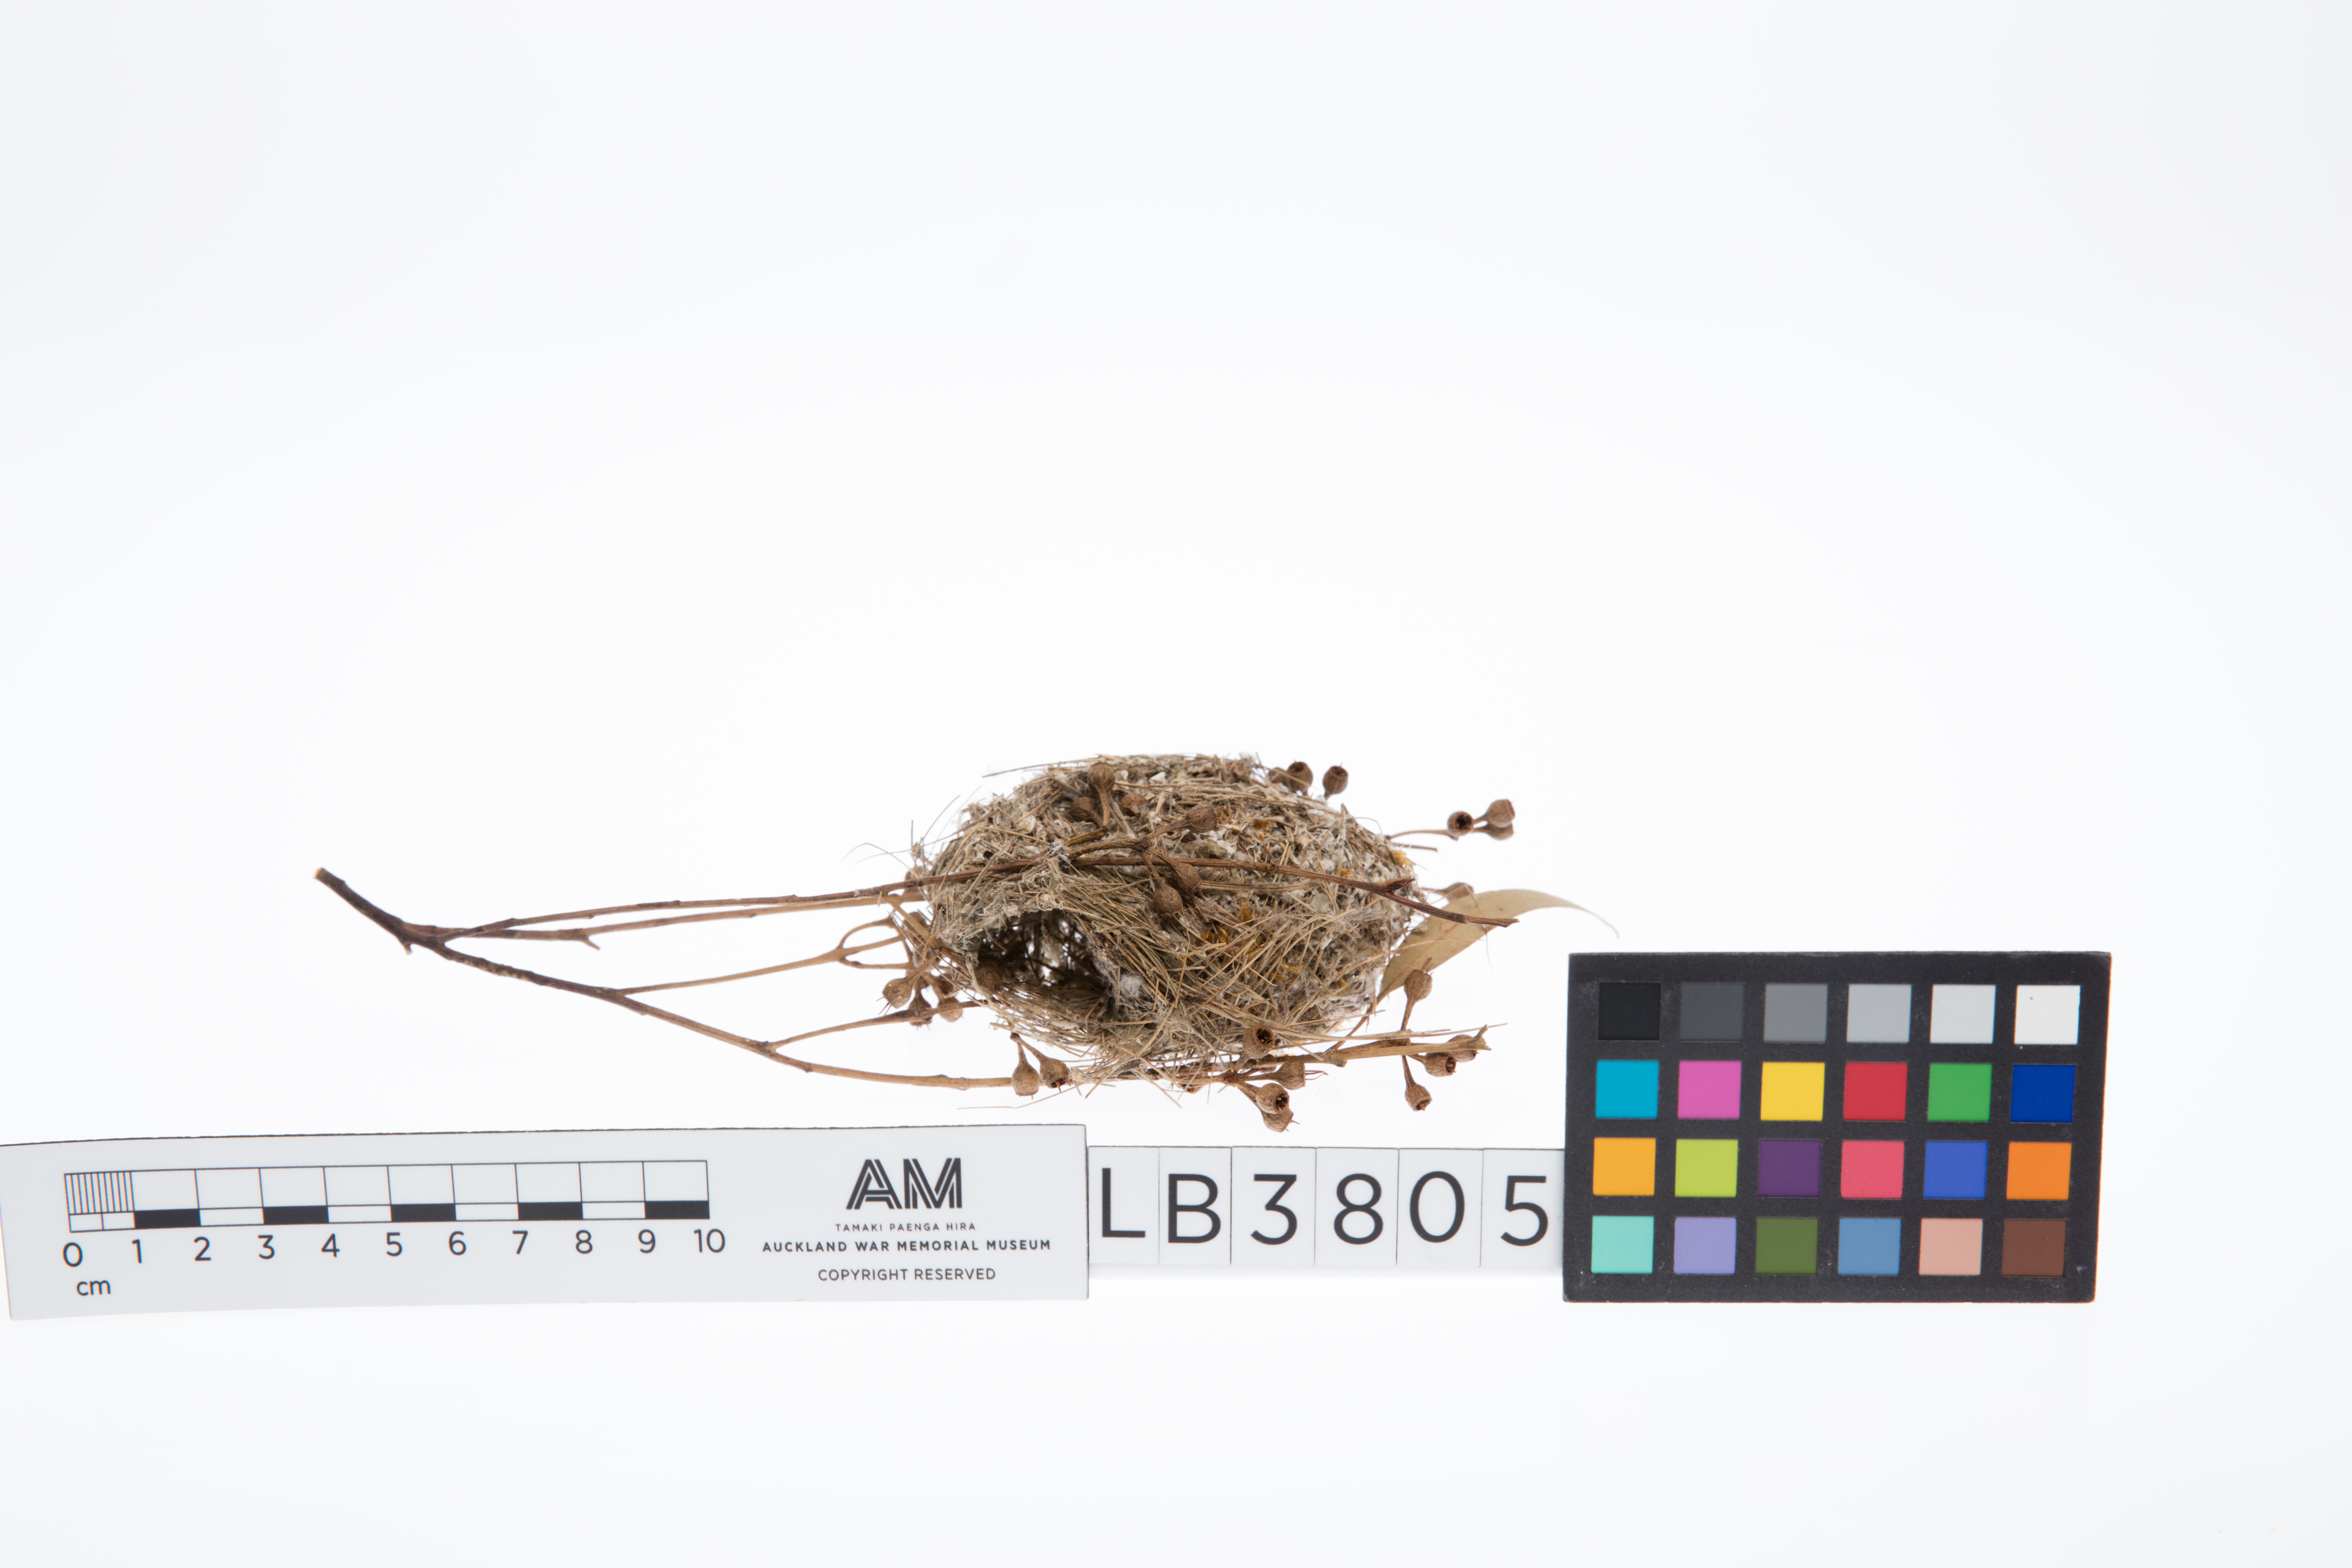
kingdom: Animalia
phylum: Chordata
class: Aves
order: Passeriformes
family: Acanthizidae
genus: Smicrornis
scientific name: Smicrornis brevirostris
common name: Weebill
